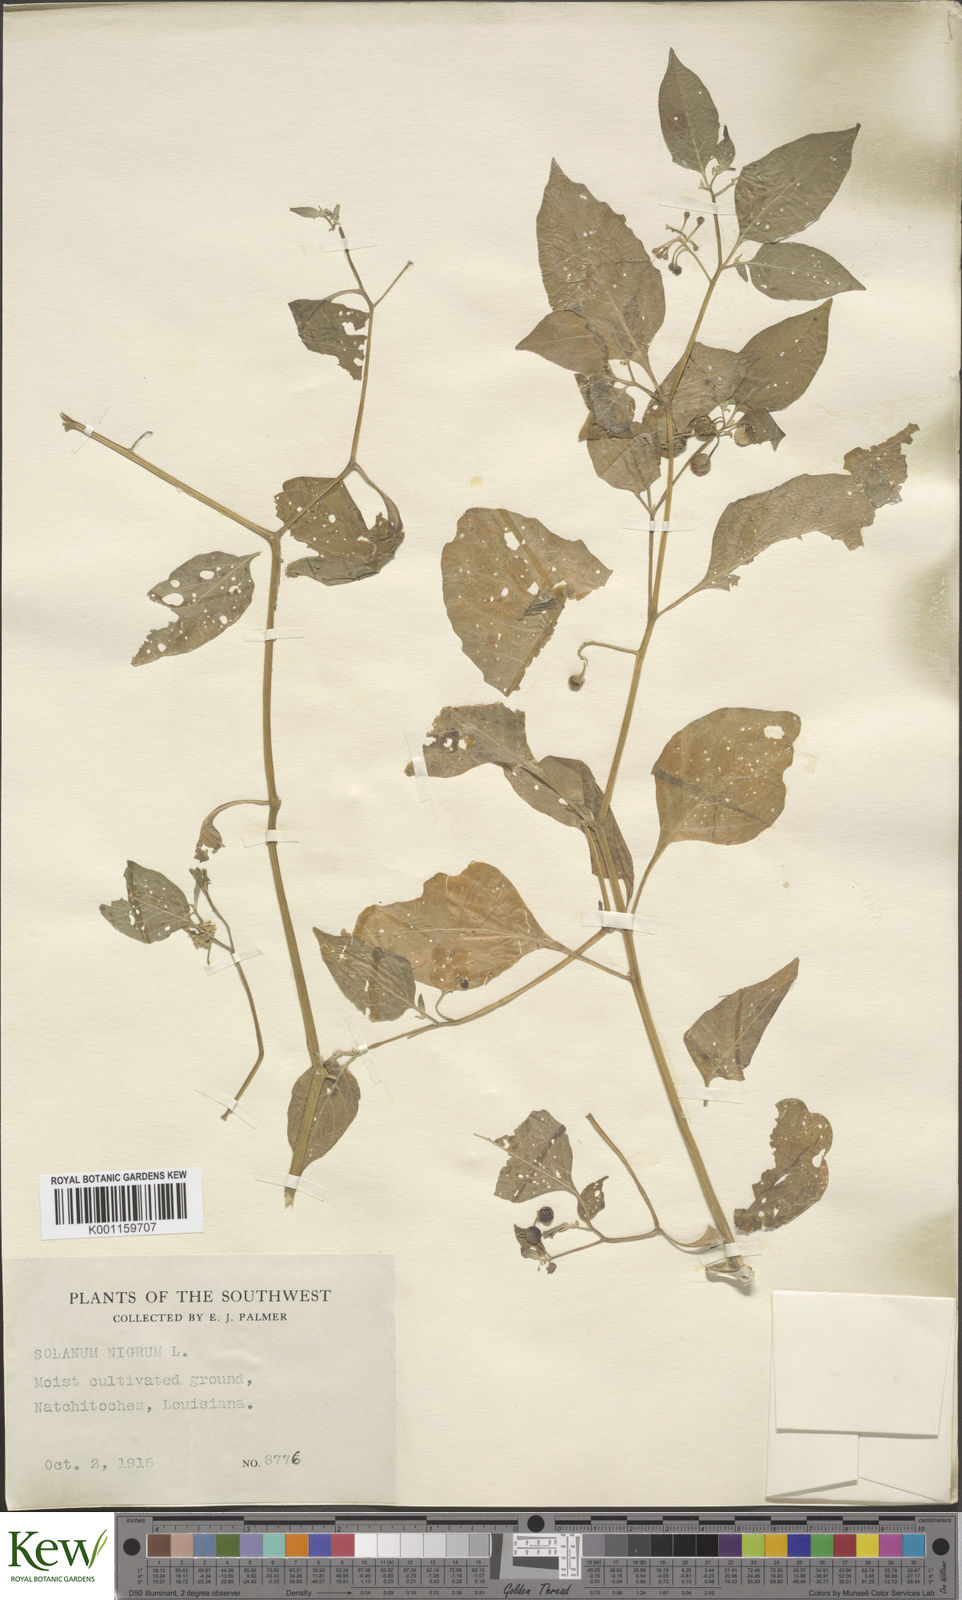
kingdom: Plantae
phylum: Tracheophyta
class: Magnoliopsida
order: Solanales
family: Solanaceae
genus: Solanum
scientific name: Solanum nigrescens
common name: Divine nightshade
